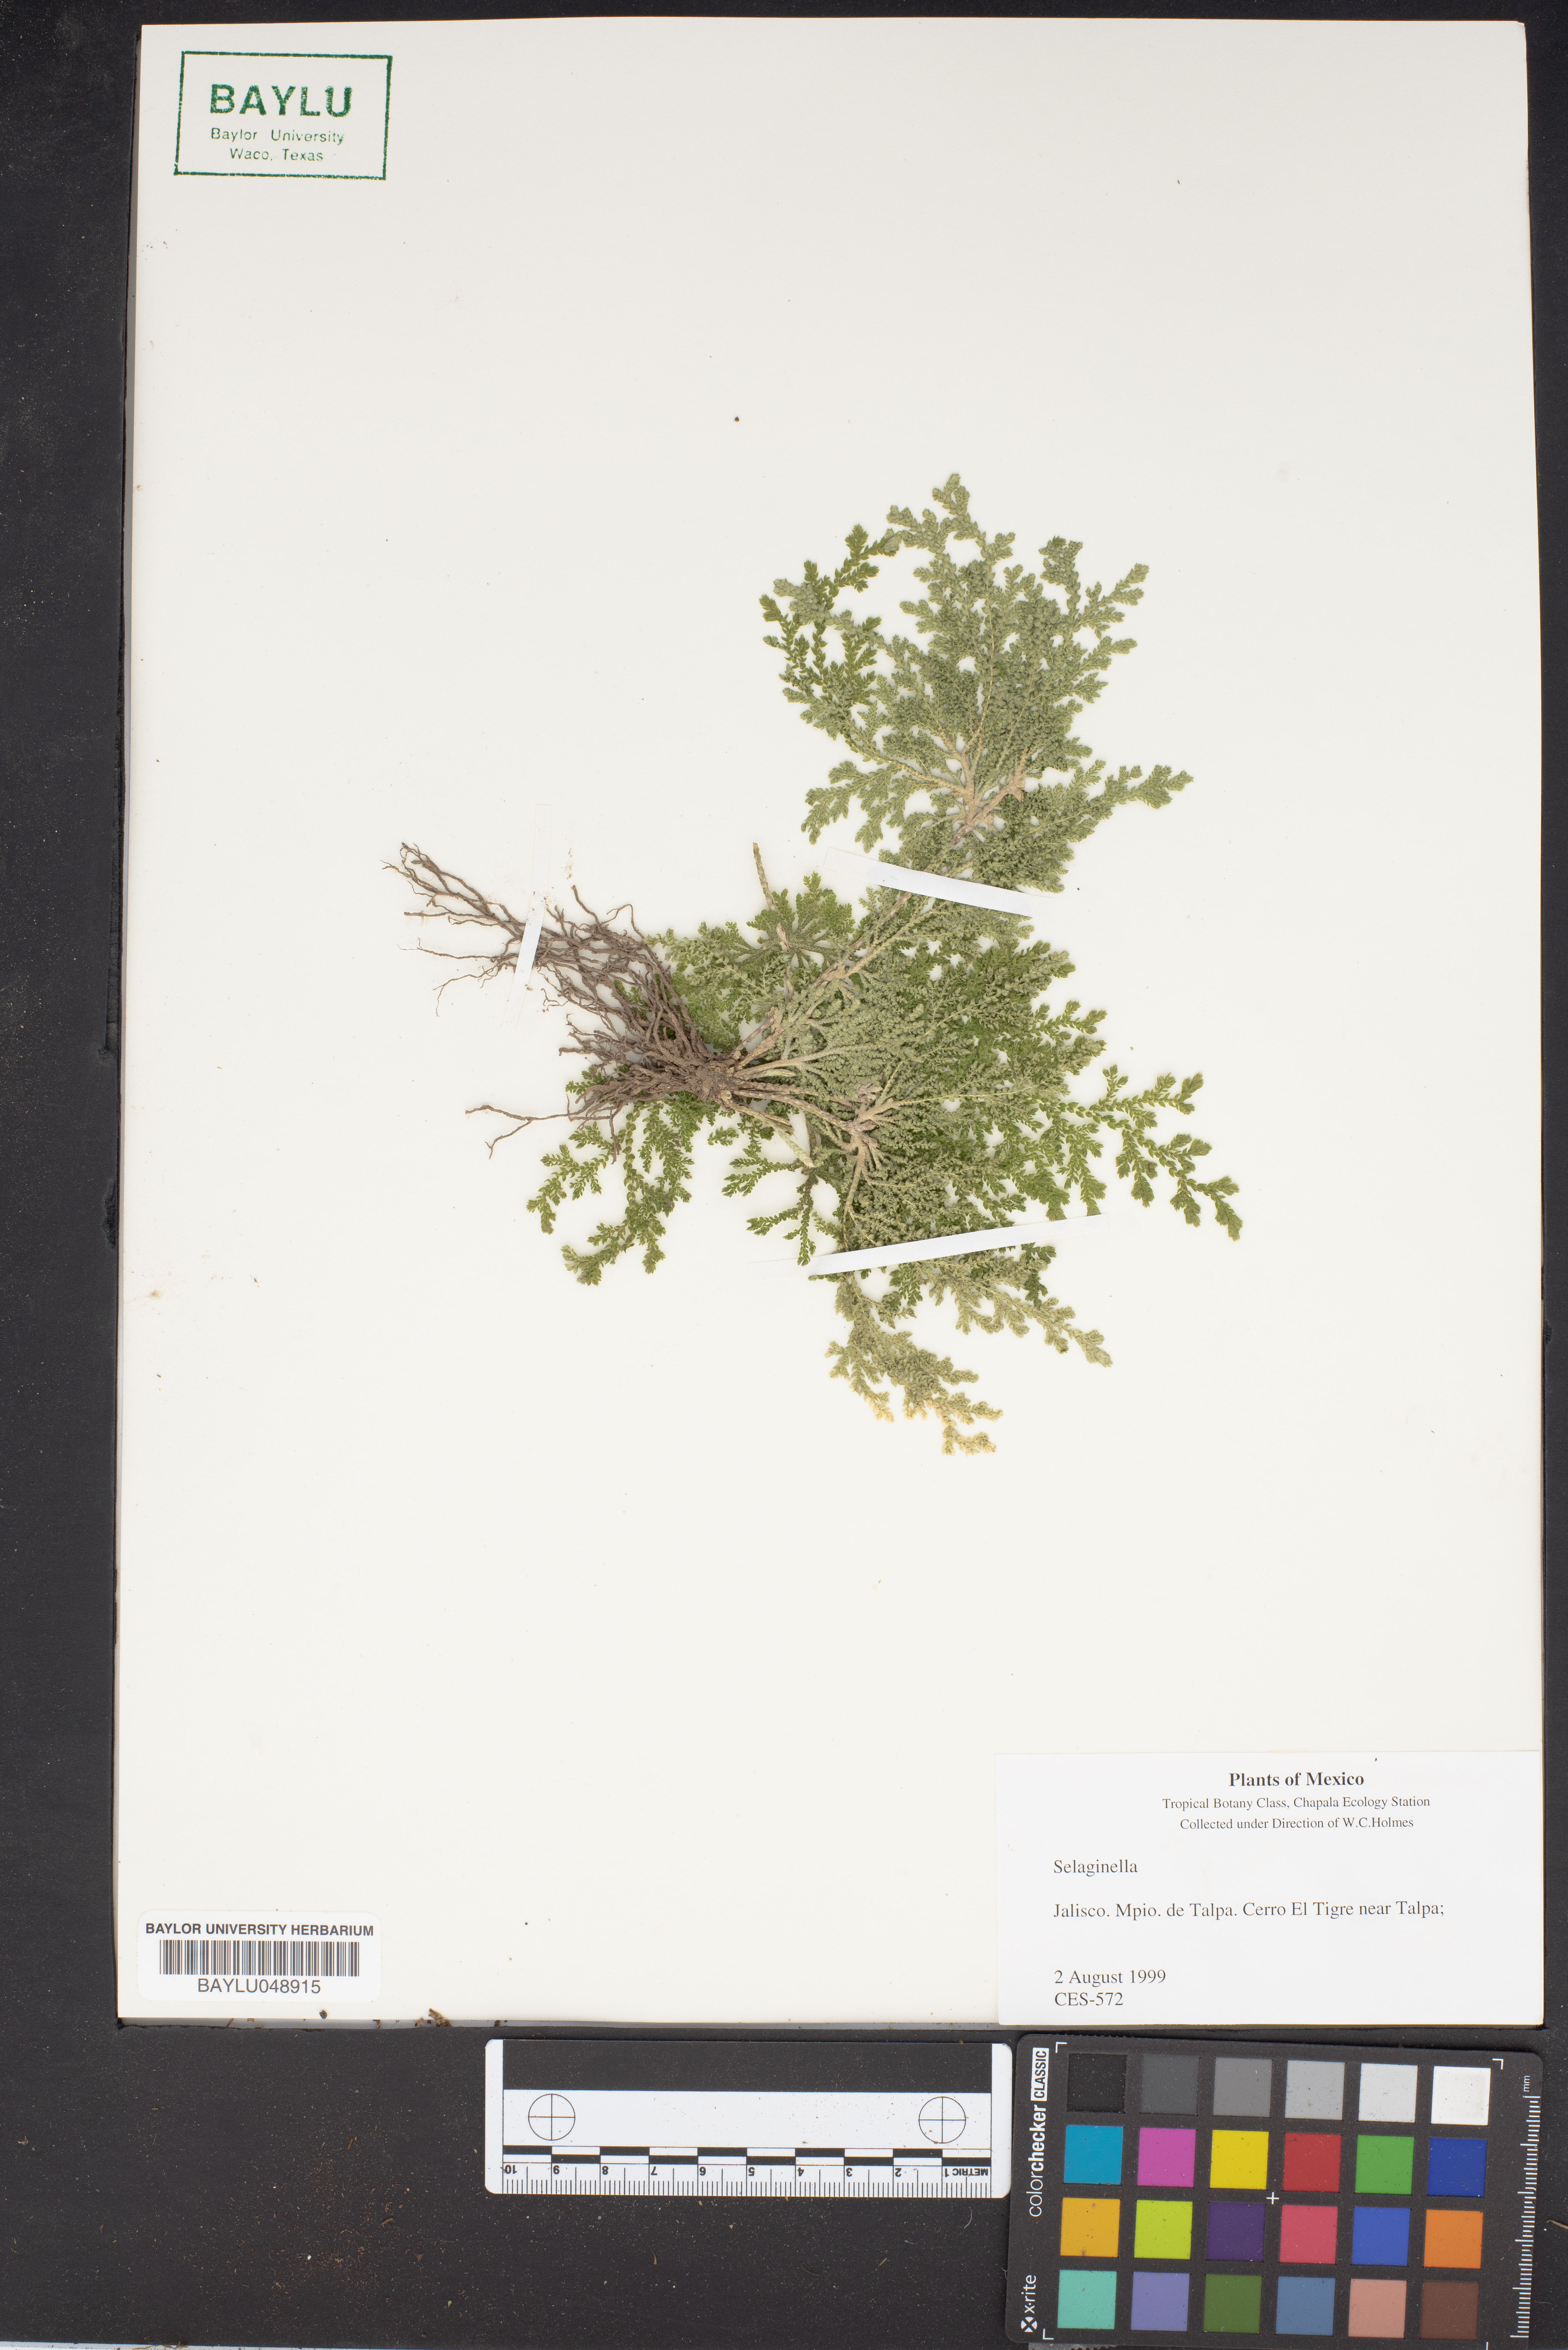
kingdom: Plantae
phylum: Tracheophyta
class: Lycopodiopsida
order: Selaginellales
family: Selaginellaceae
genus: Selaginella
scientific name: Selaginella
